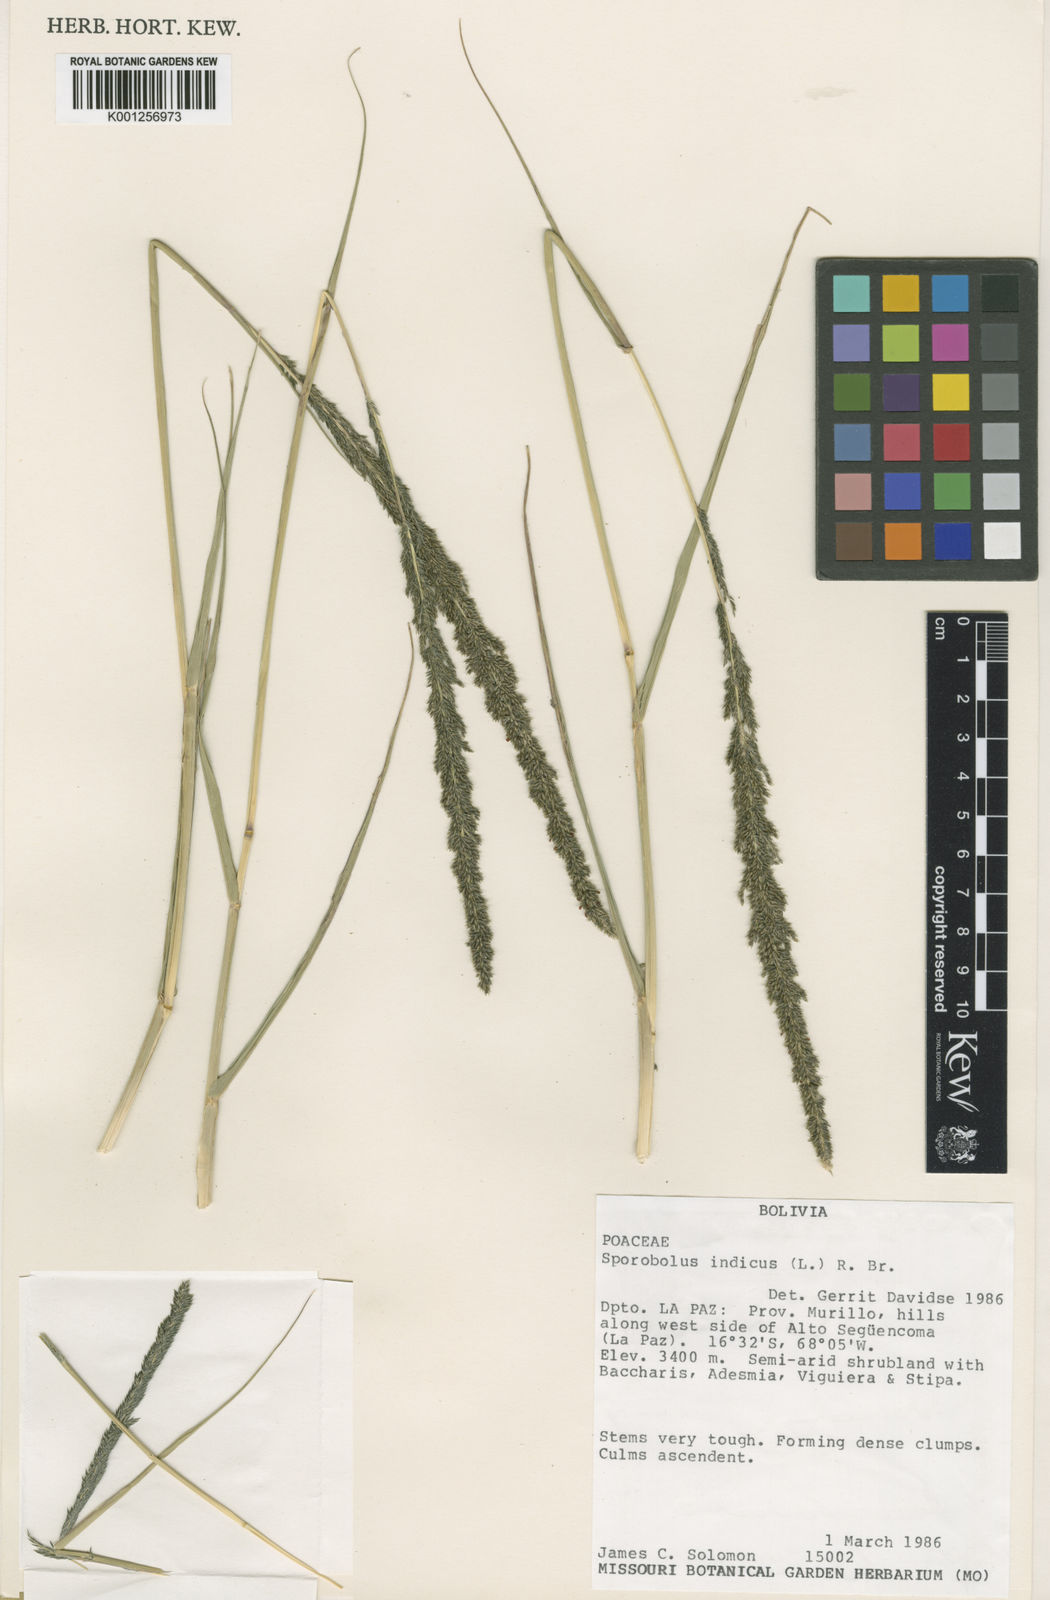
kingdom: Plantae
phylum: Tracheophyta
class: Liliopsida
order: Poales
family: Poaceae
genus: Sporobolus
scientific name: Sporobolus indicus
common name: Smut grass
